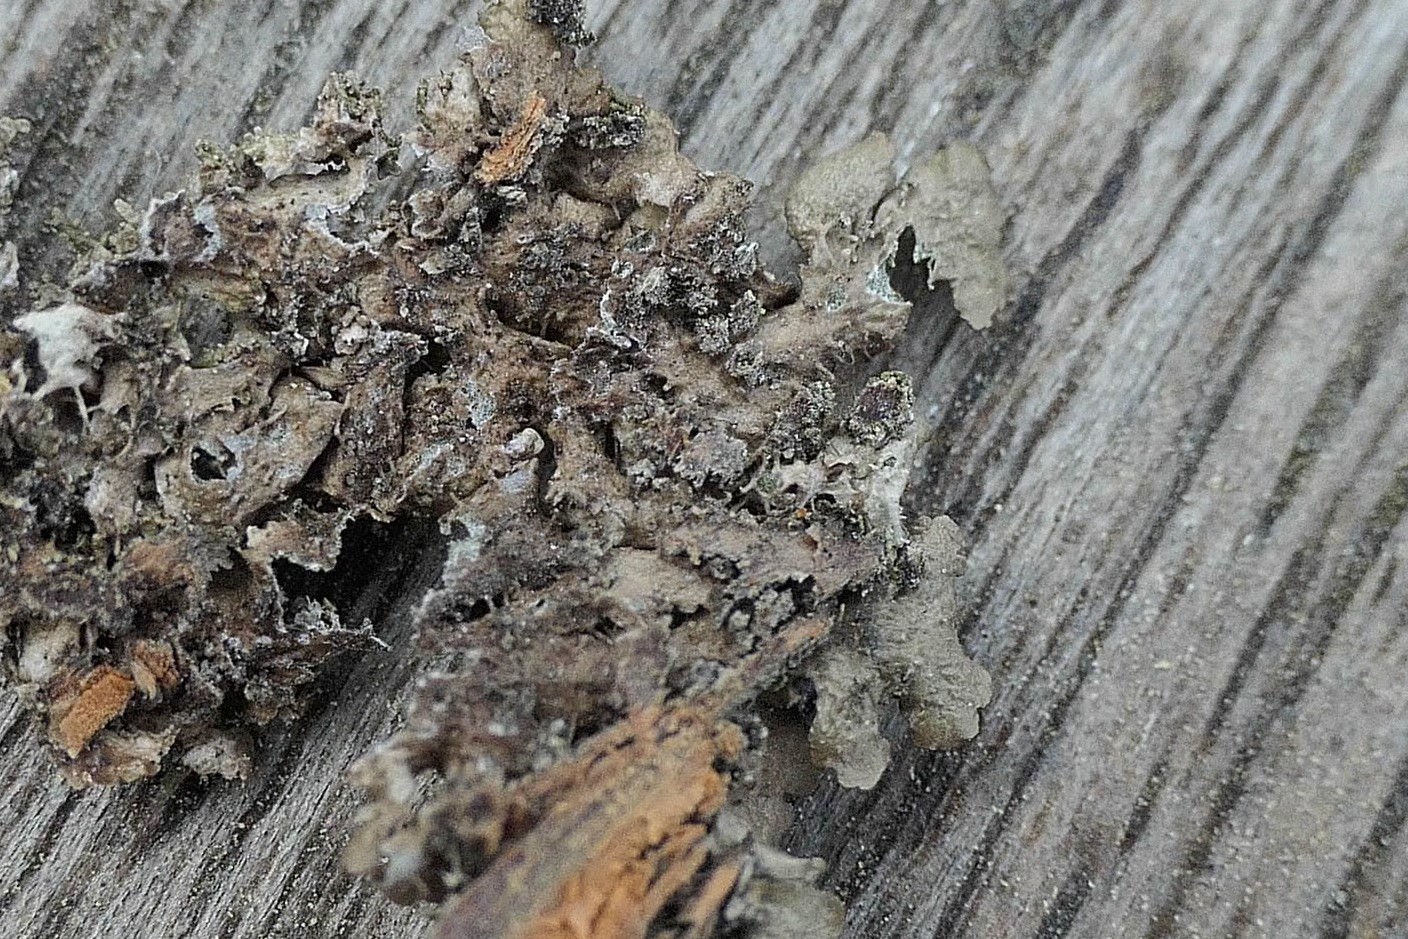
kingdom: Fungi
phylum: Ascomycota
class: Lecanoromycetes
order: Lecanorales
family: Parmeliaceae
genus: Melanohalea
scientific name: Melanohalea exasperatula
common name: kølle-skållav
